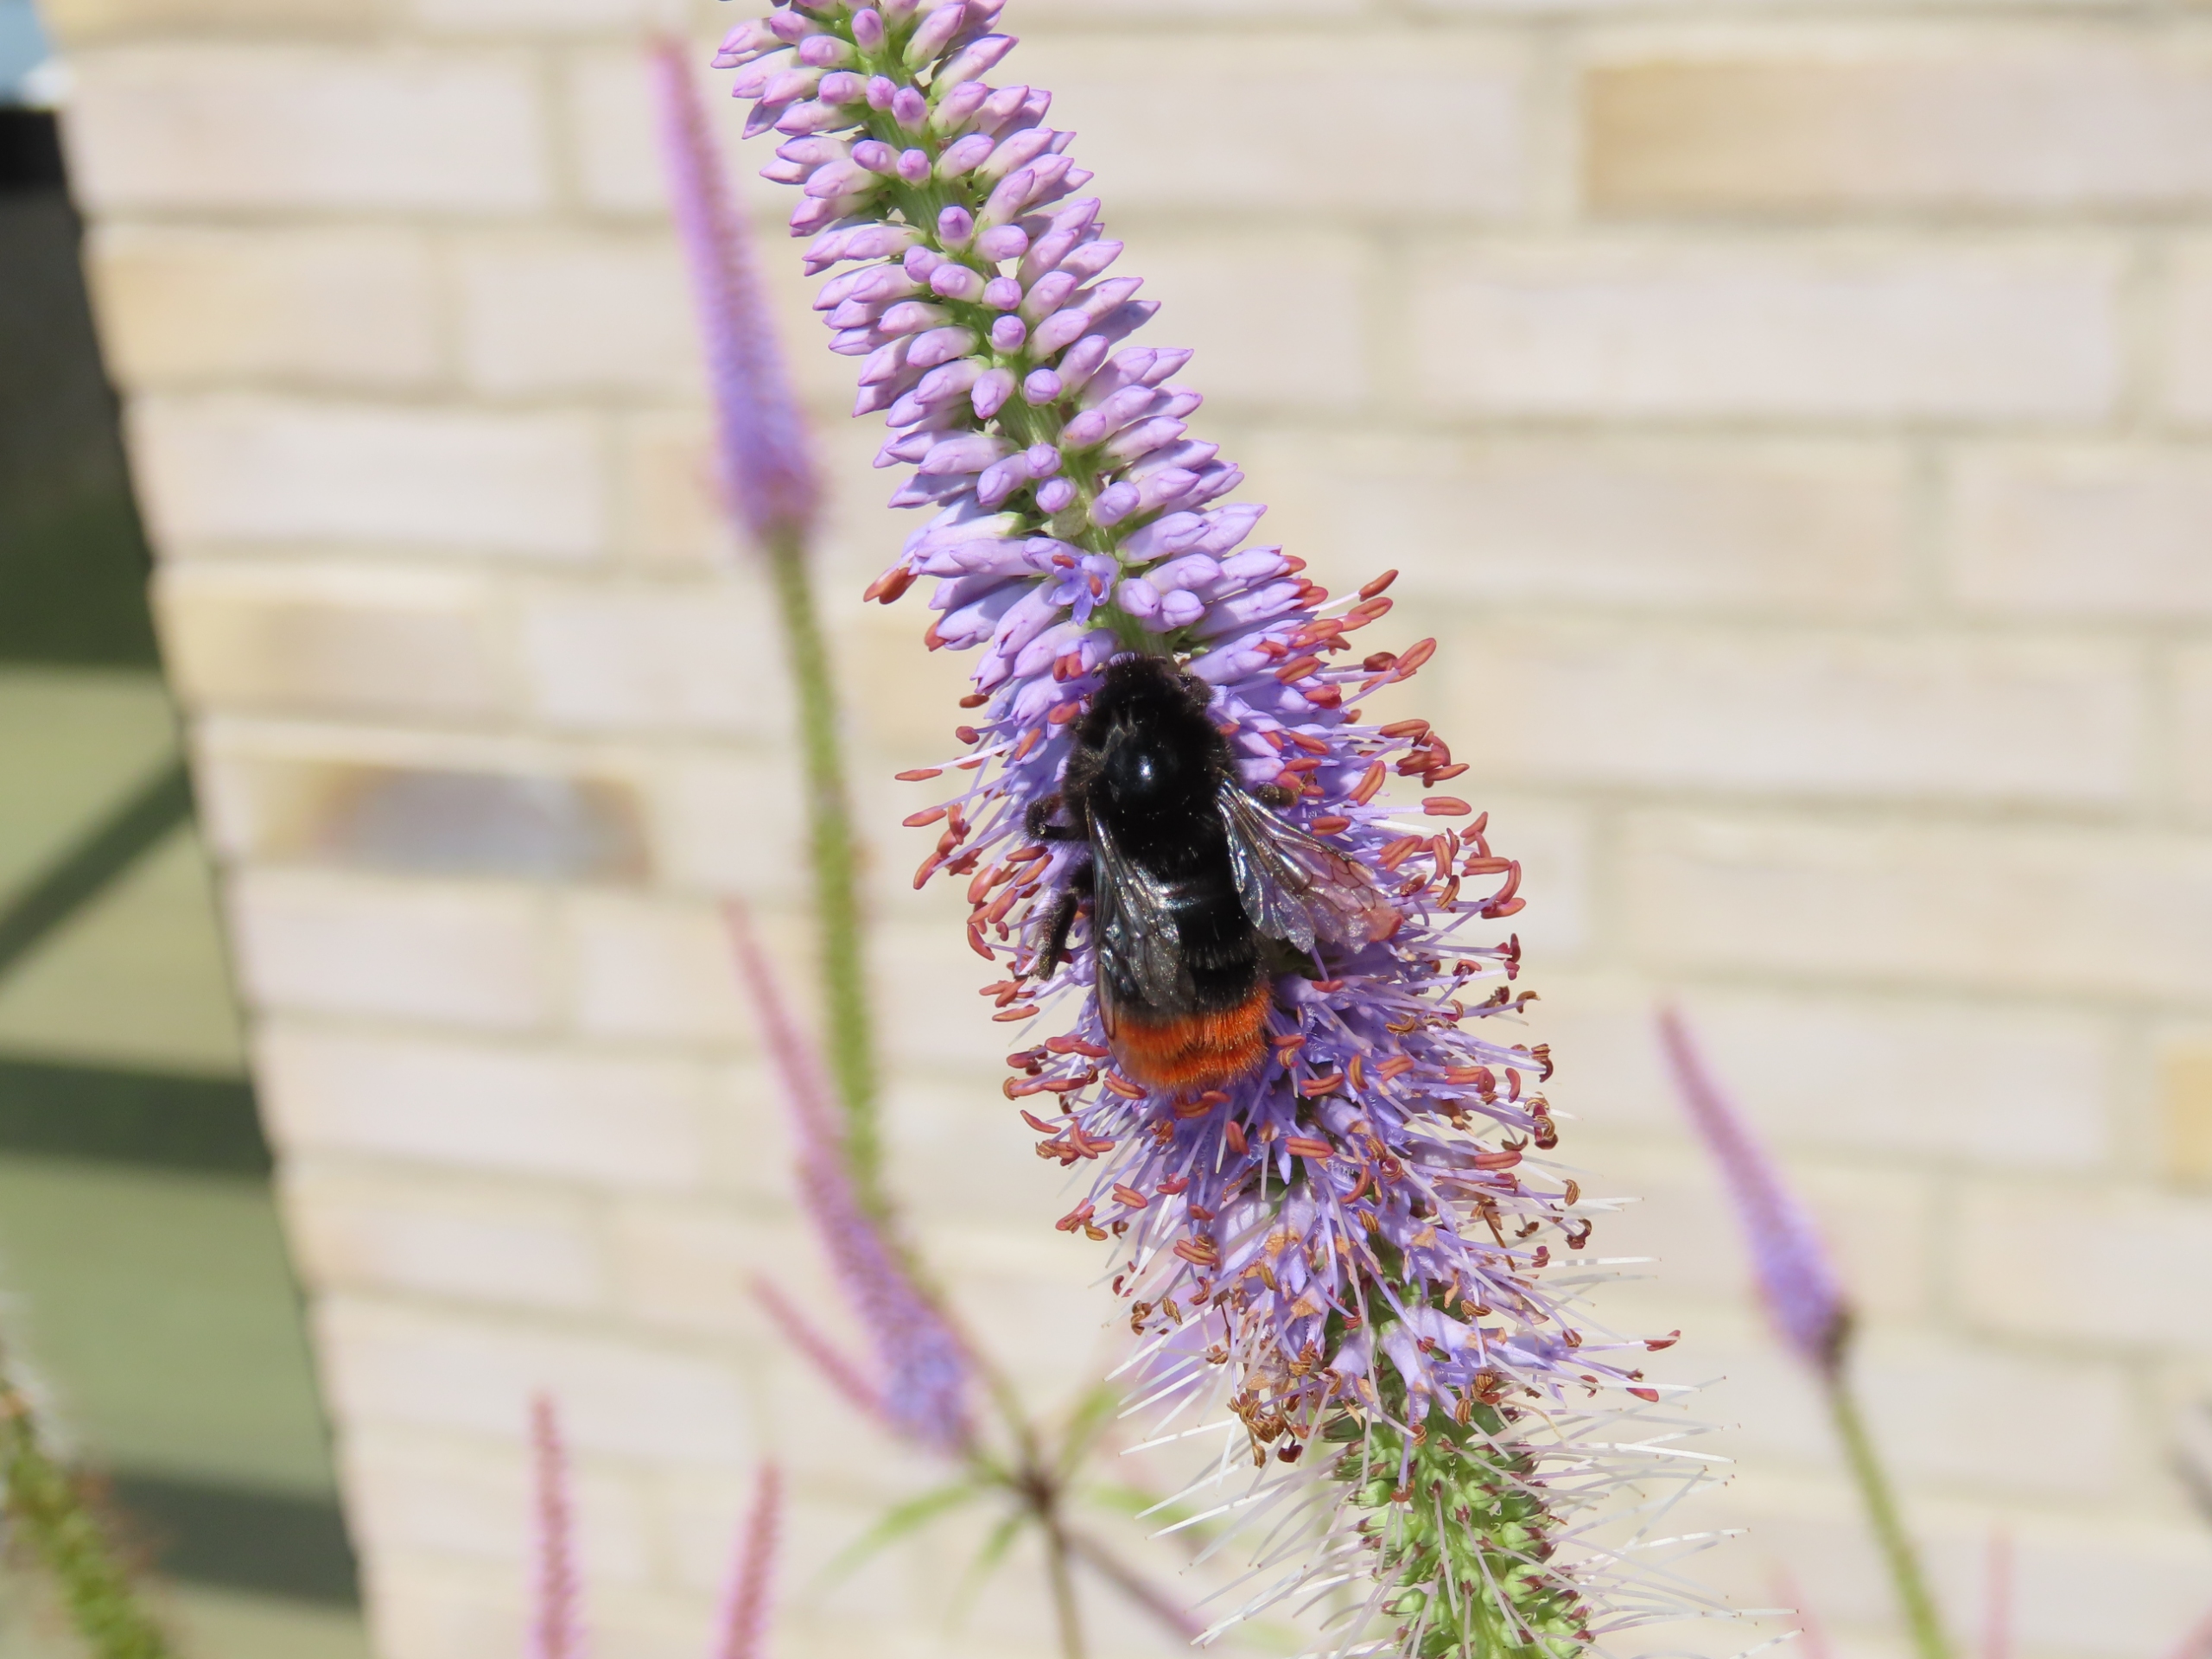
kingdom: Animalia
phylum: Arthropoda
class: Insecta
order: Hymenoptera
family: Apidae
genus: Bombus
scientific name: Bombus lapidarius
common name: Stenhumle
